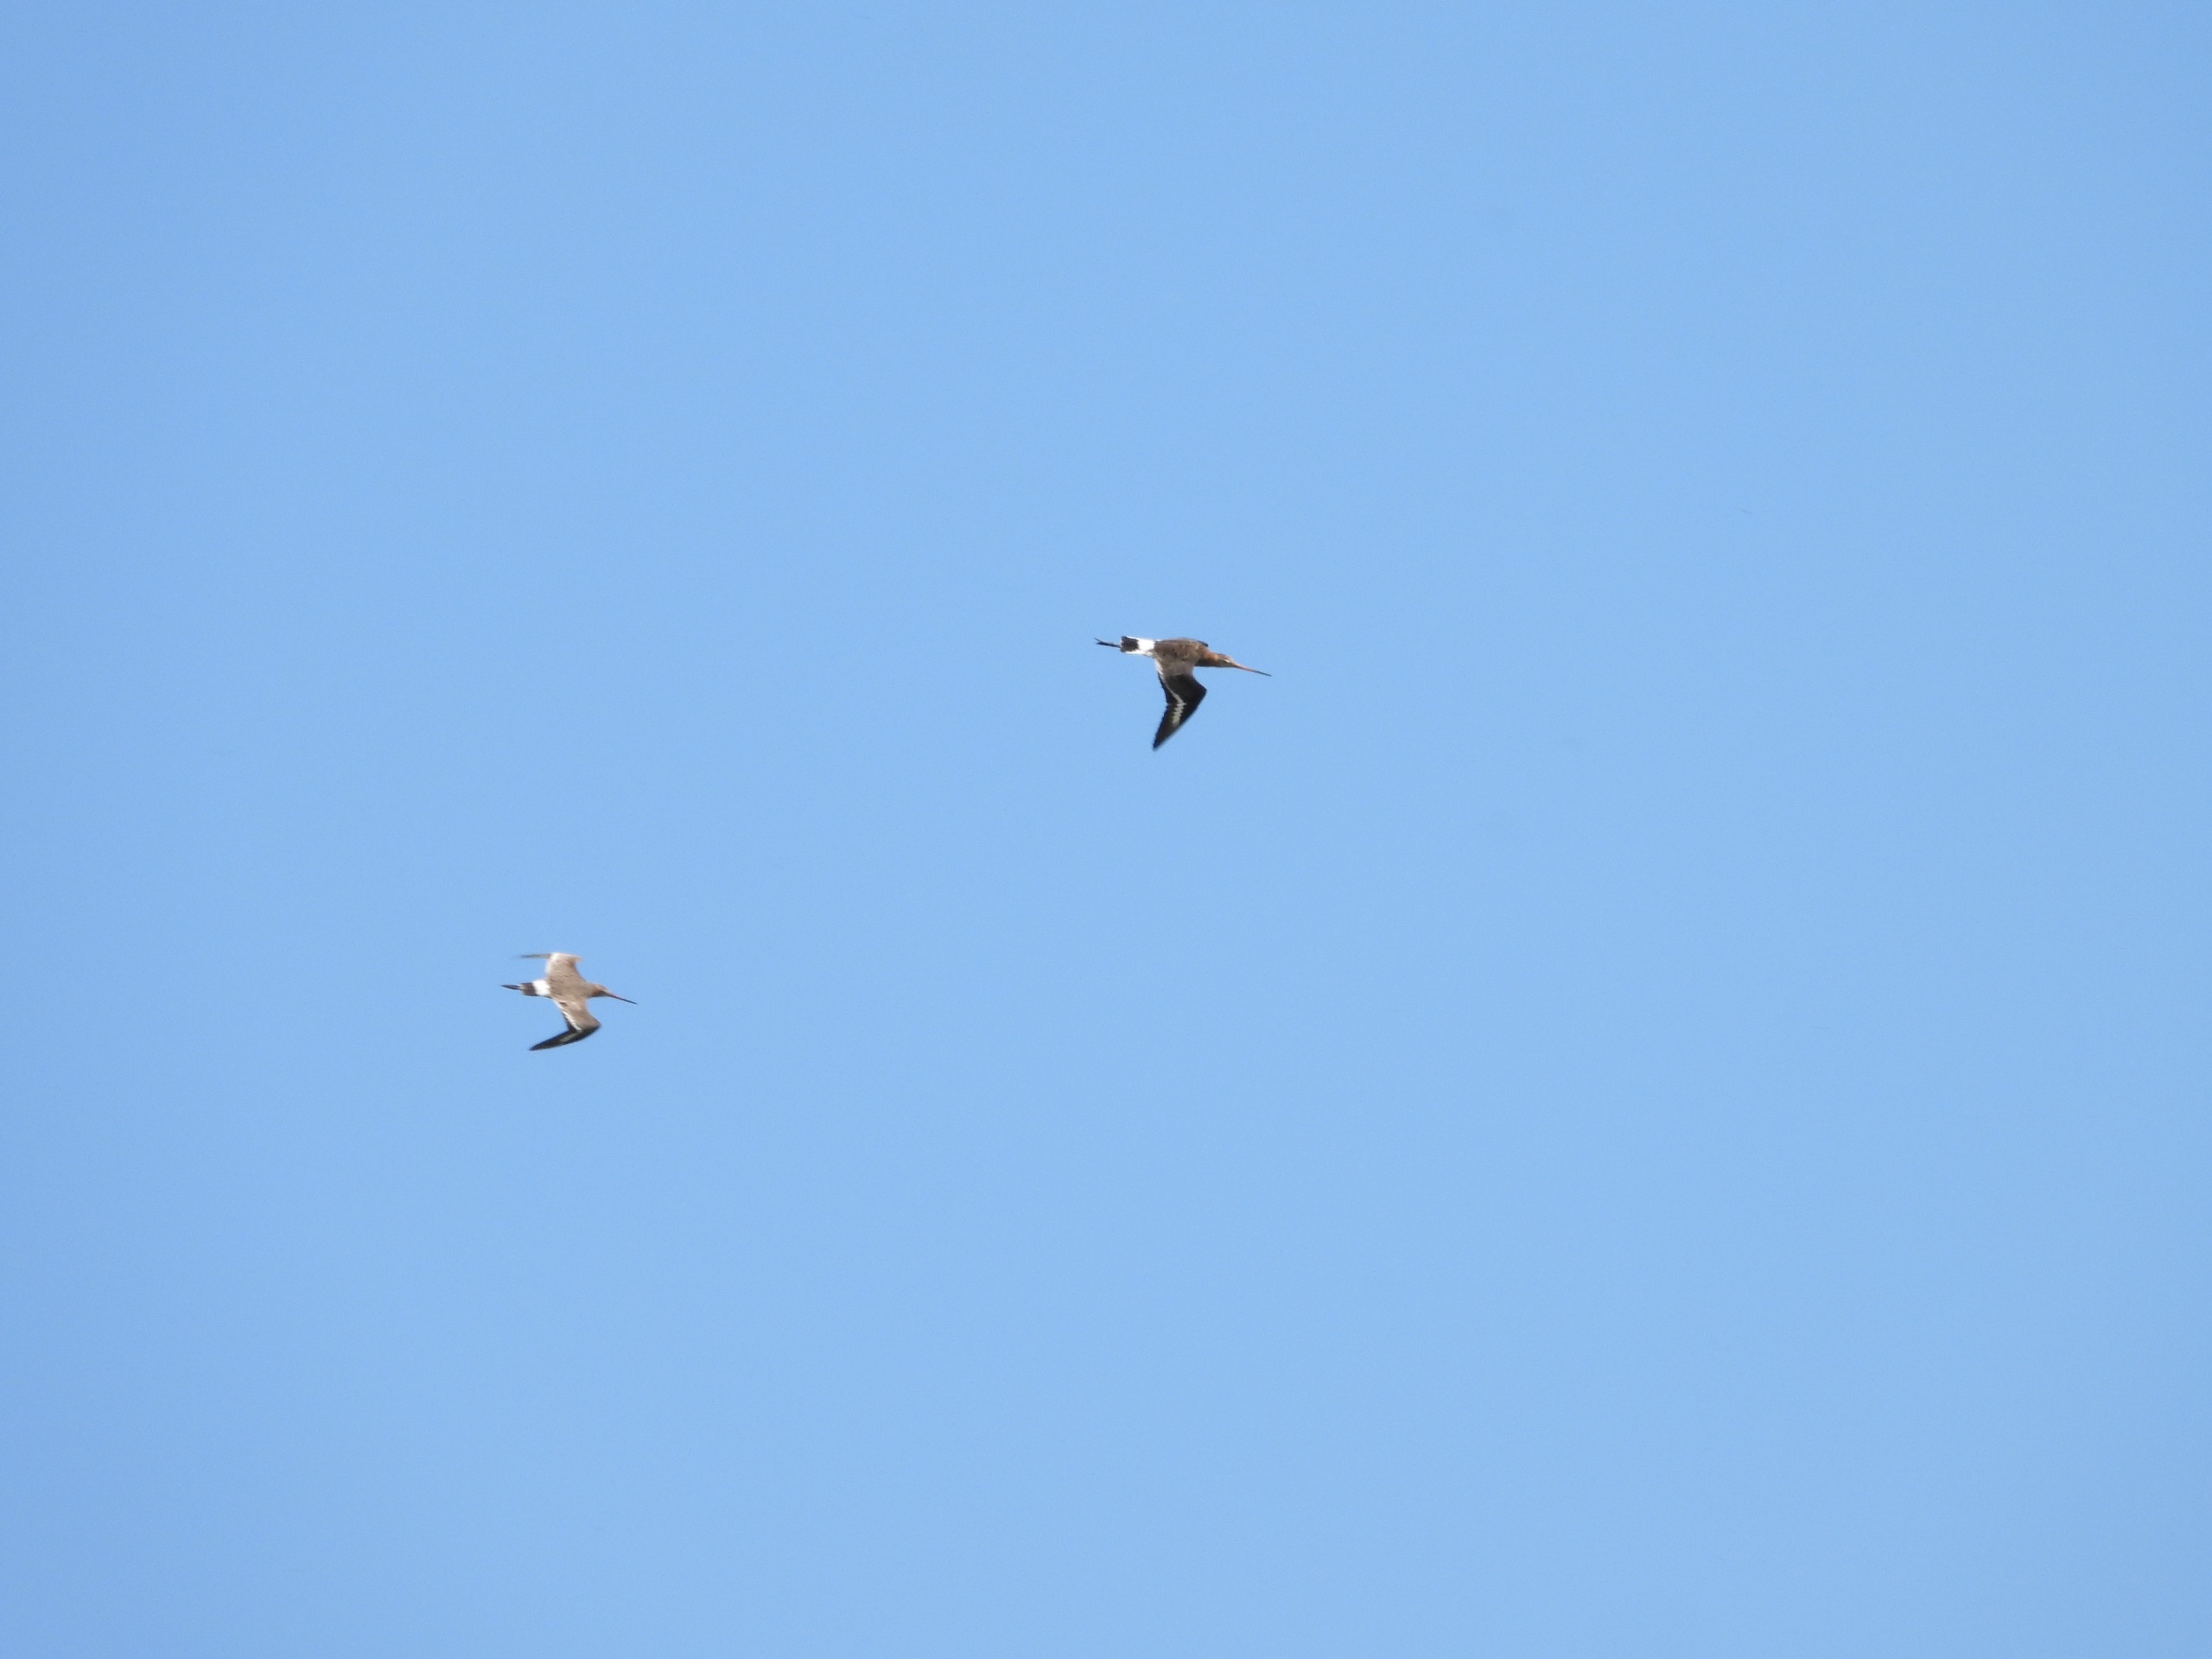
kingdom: Animalia
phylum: Chordata
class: Aves
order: Charadriiformes
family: Scolopacidae
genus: Limosa
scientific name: Limosa limosa
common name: Stor kobbersneppe
